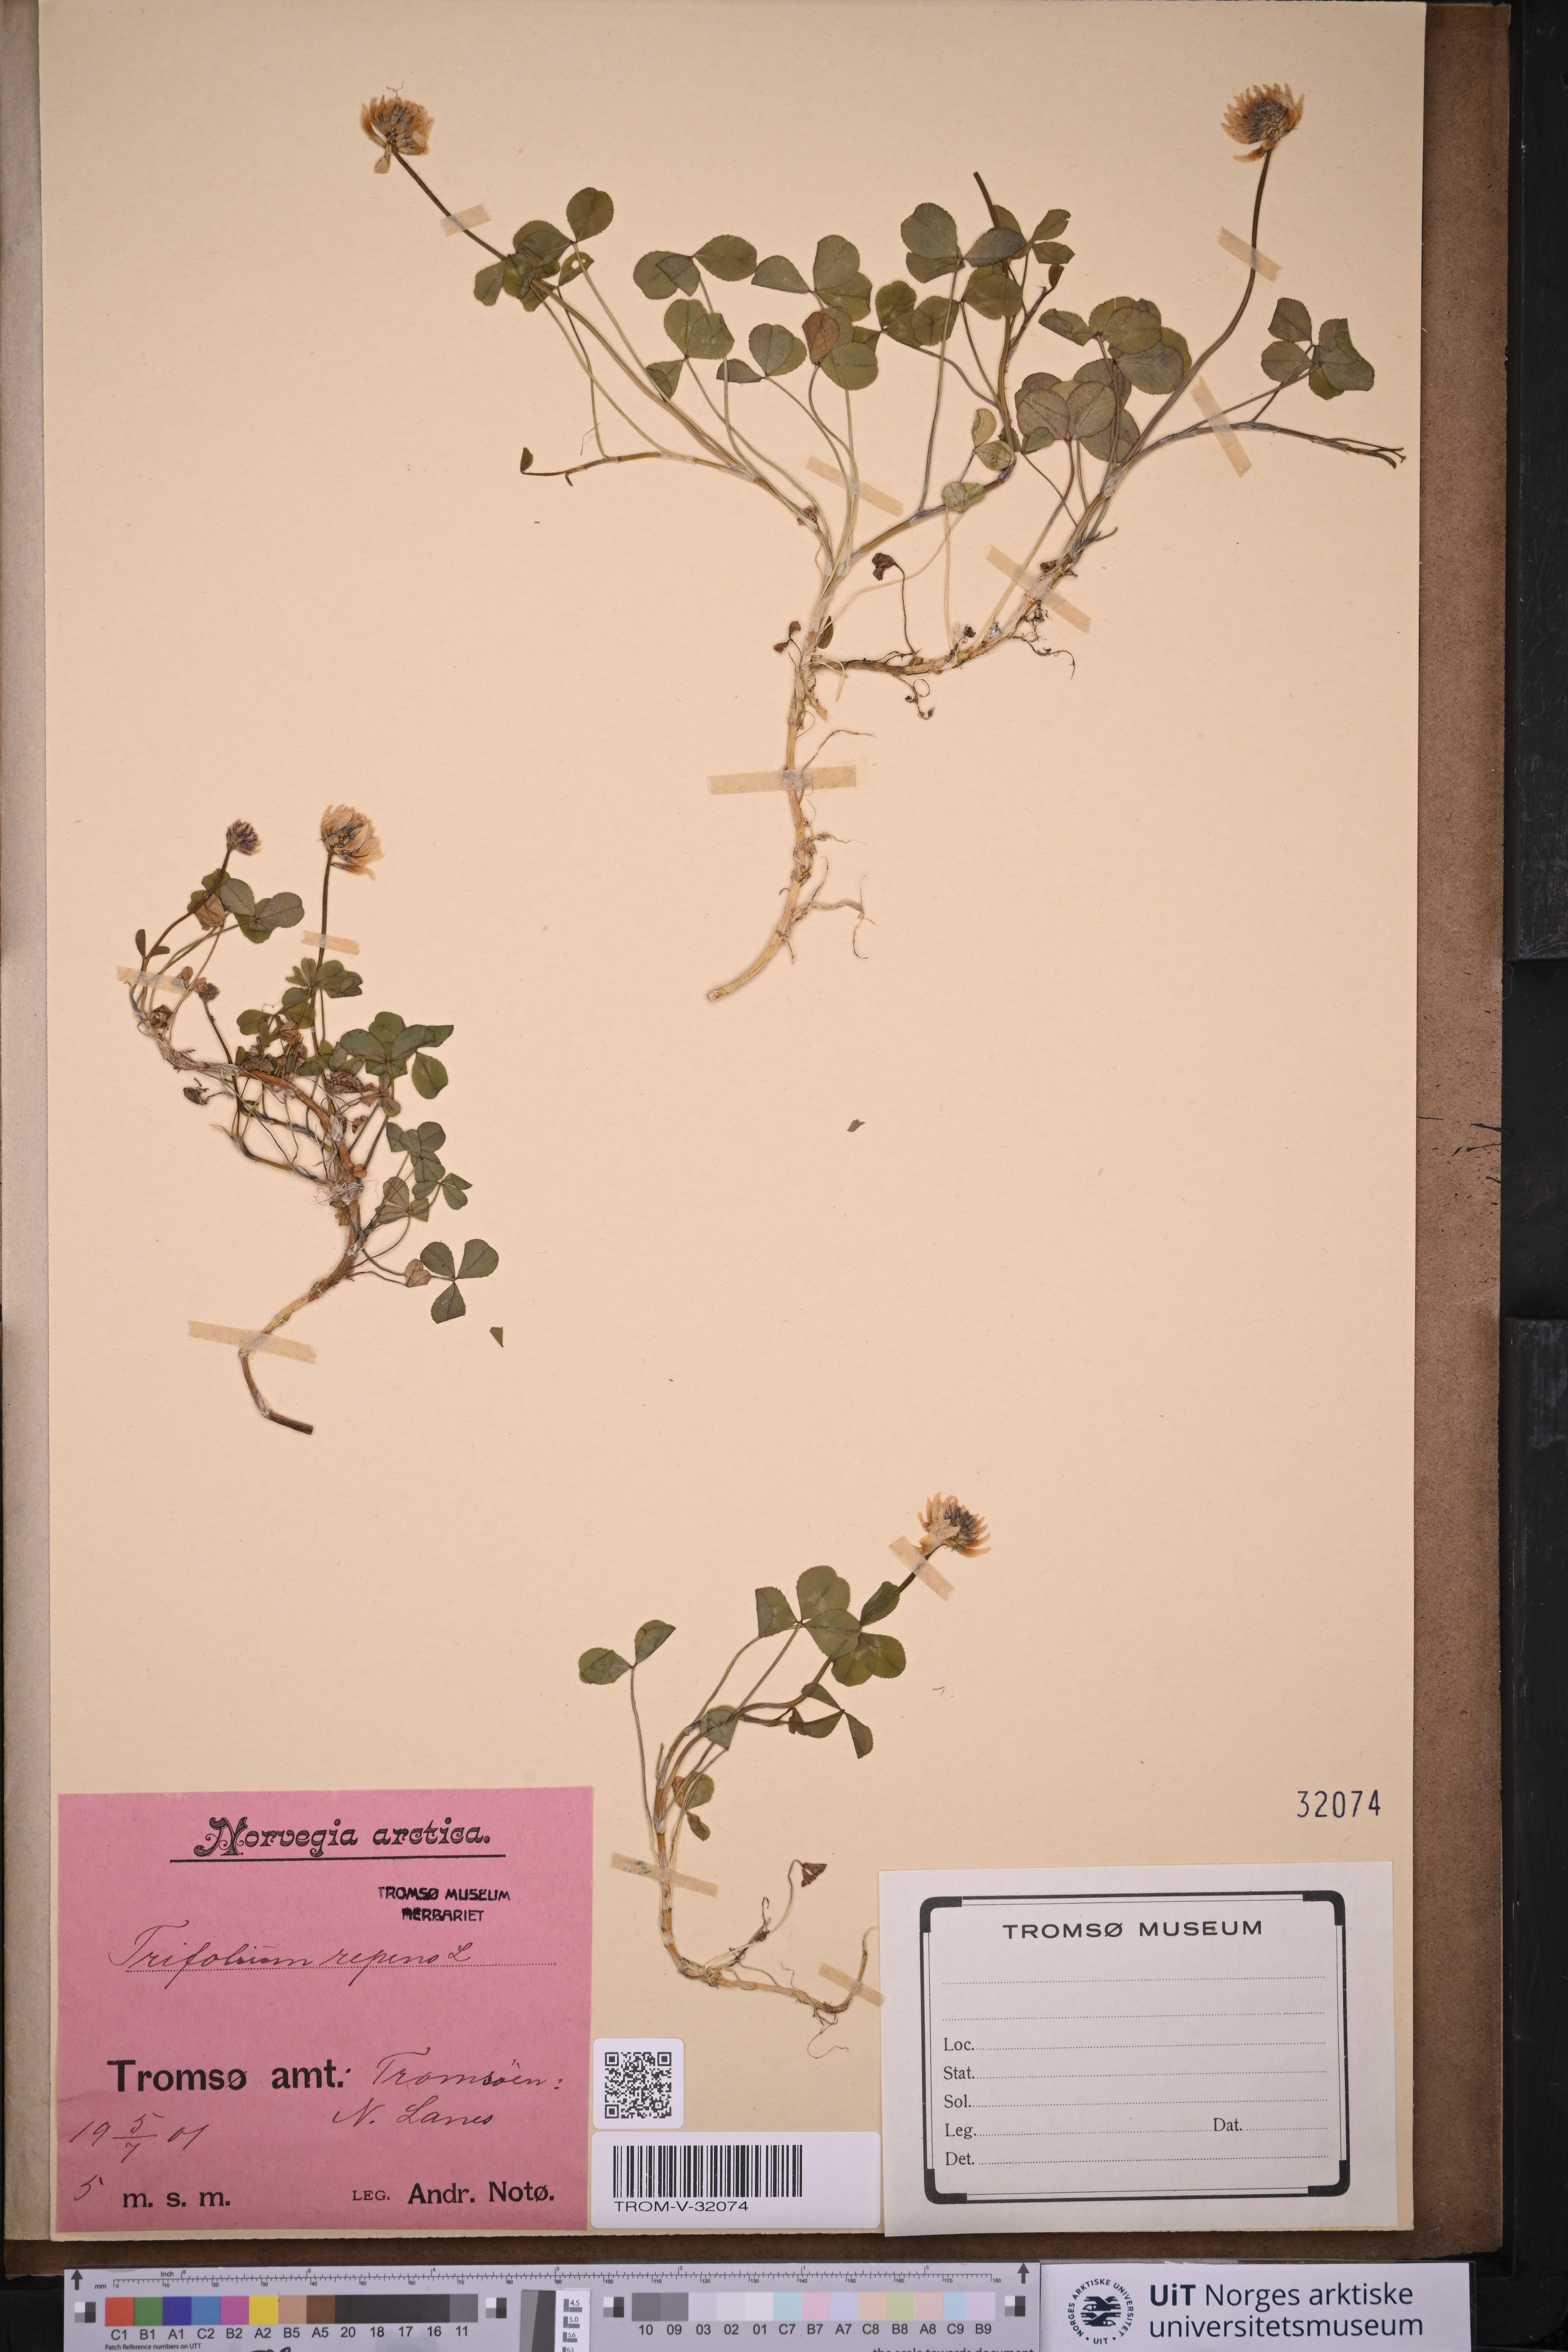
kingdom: Plantae
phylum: Tracheophyta
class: Magnoliopsida
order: Fabales
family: Fabaceae
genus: Trifolium
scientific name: Trifolium repens
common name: White clover
